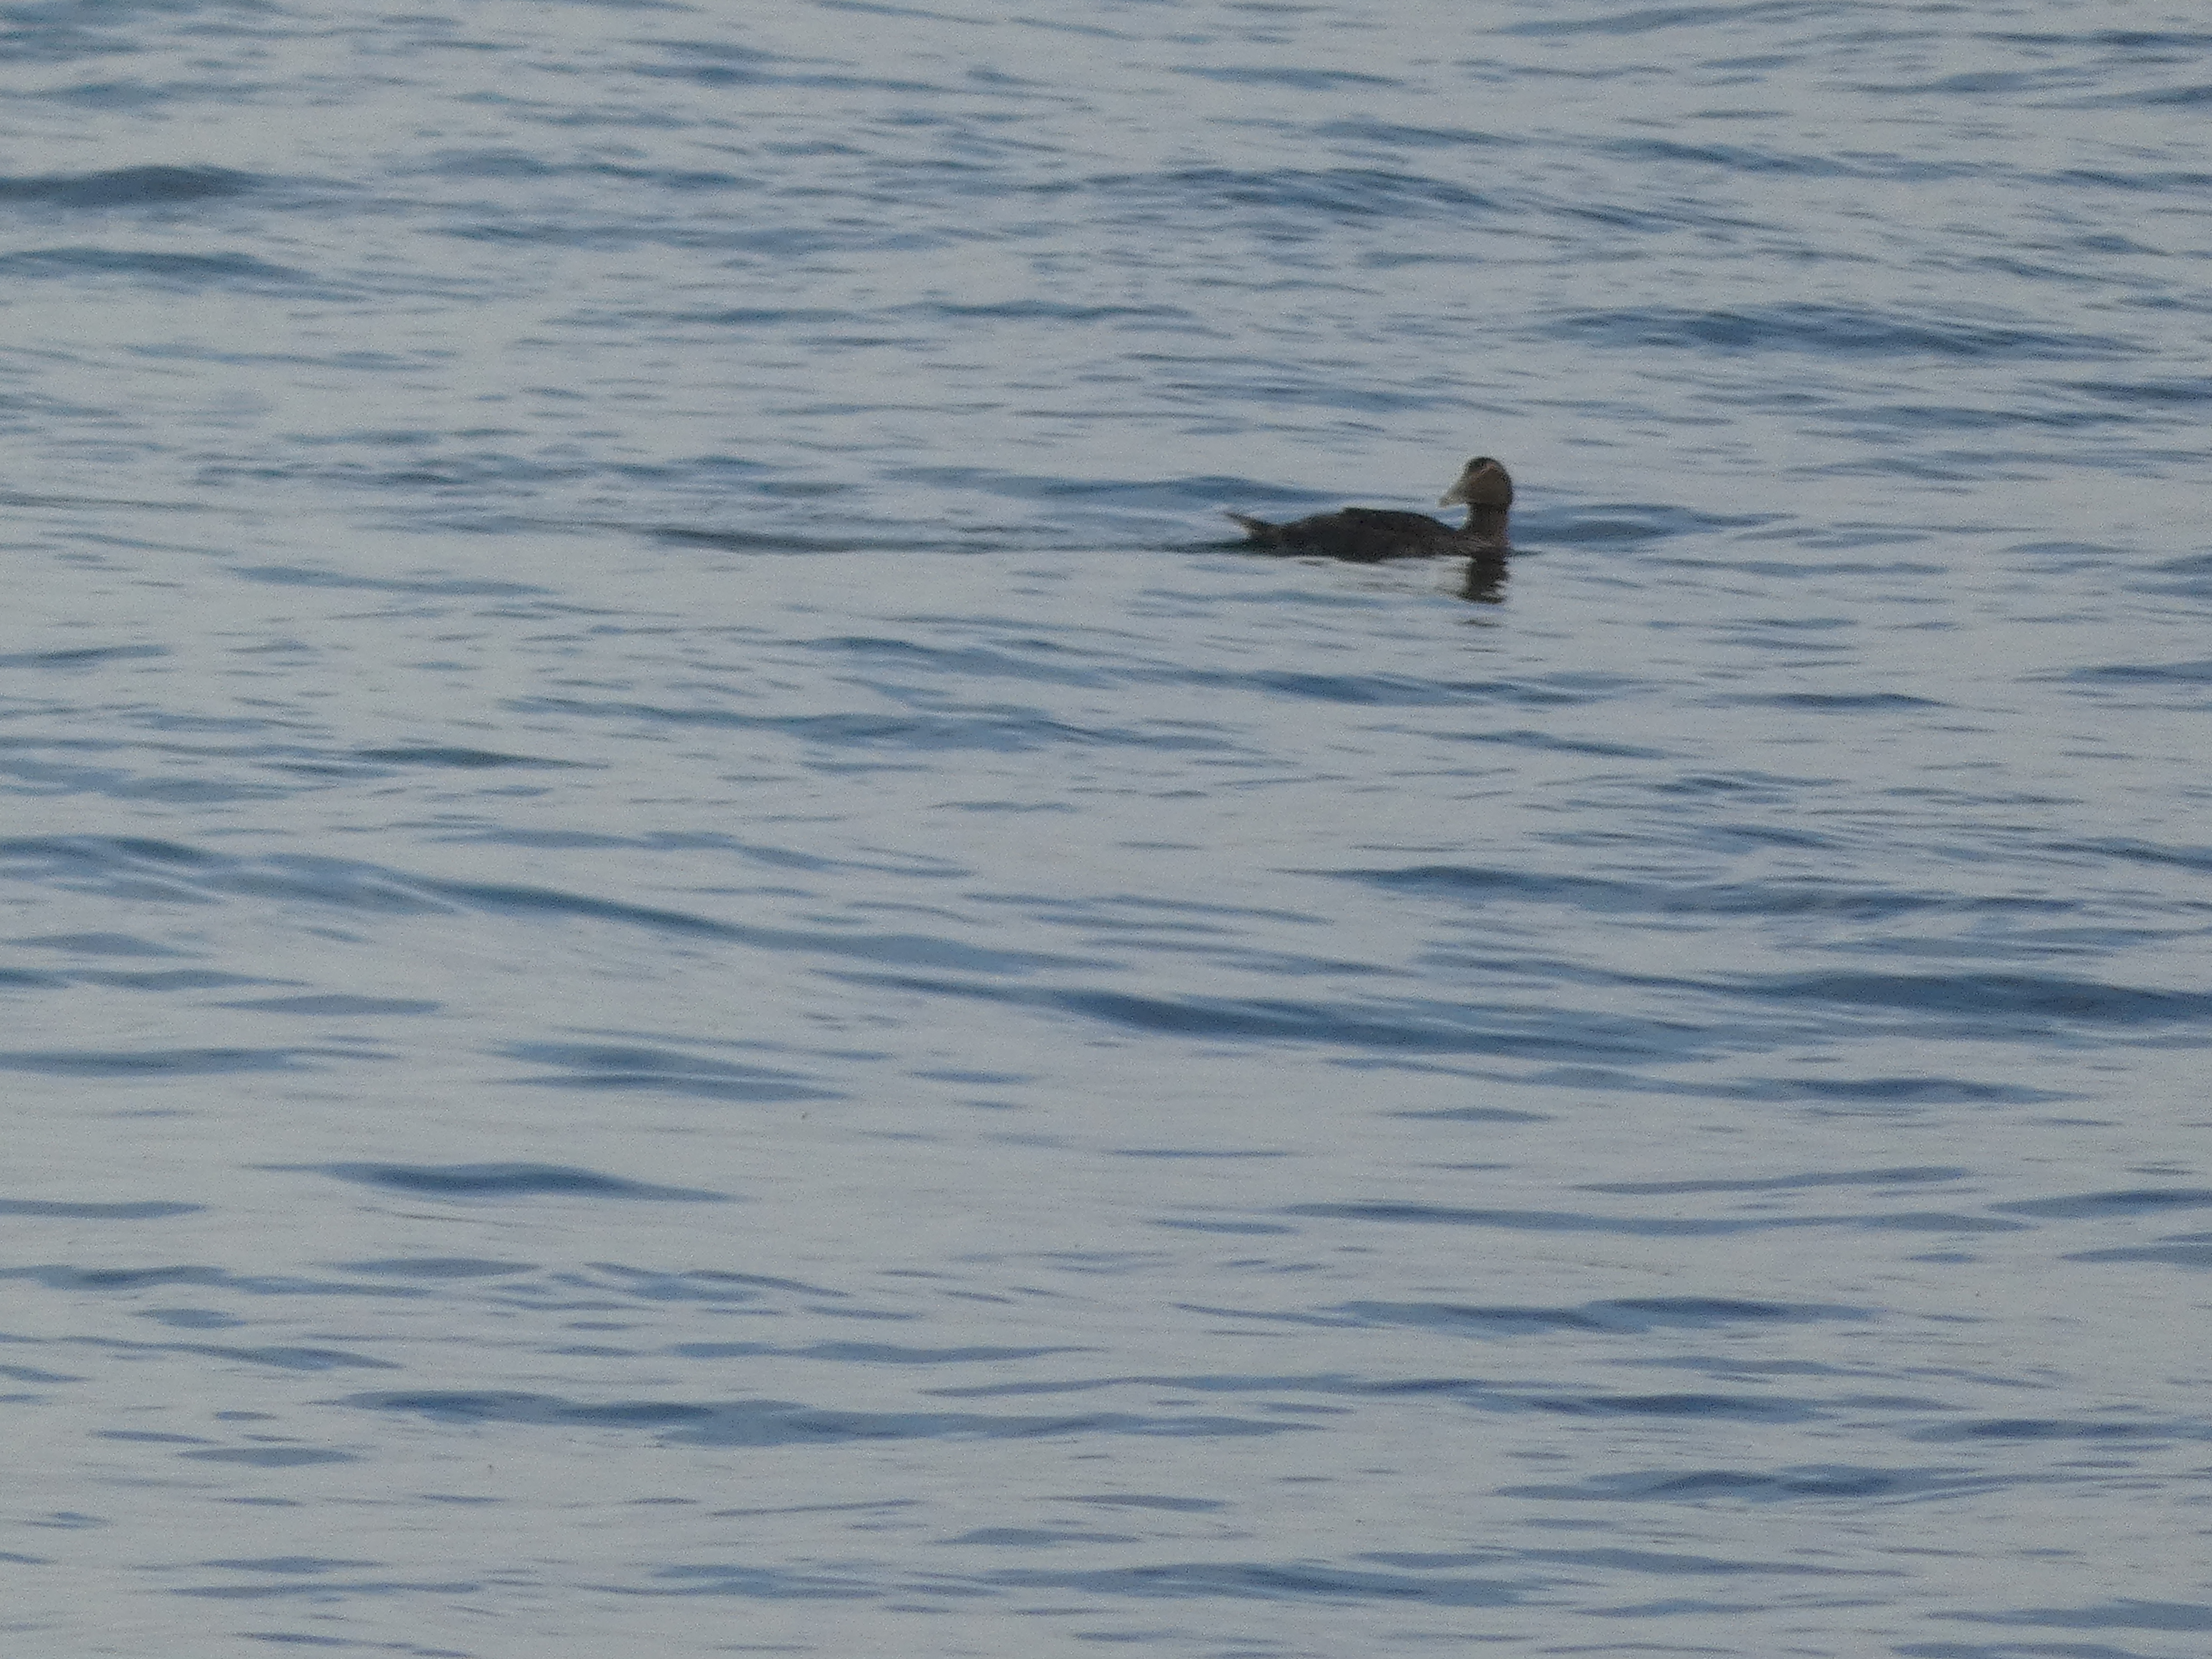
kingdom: Animalia
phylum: Chordata
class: Aves
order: Anseriformes
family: Anatidae
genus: Somateria
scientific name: Somateria mollissima
